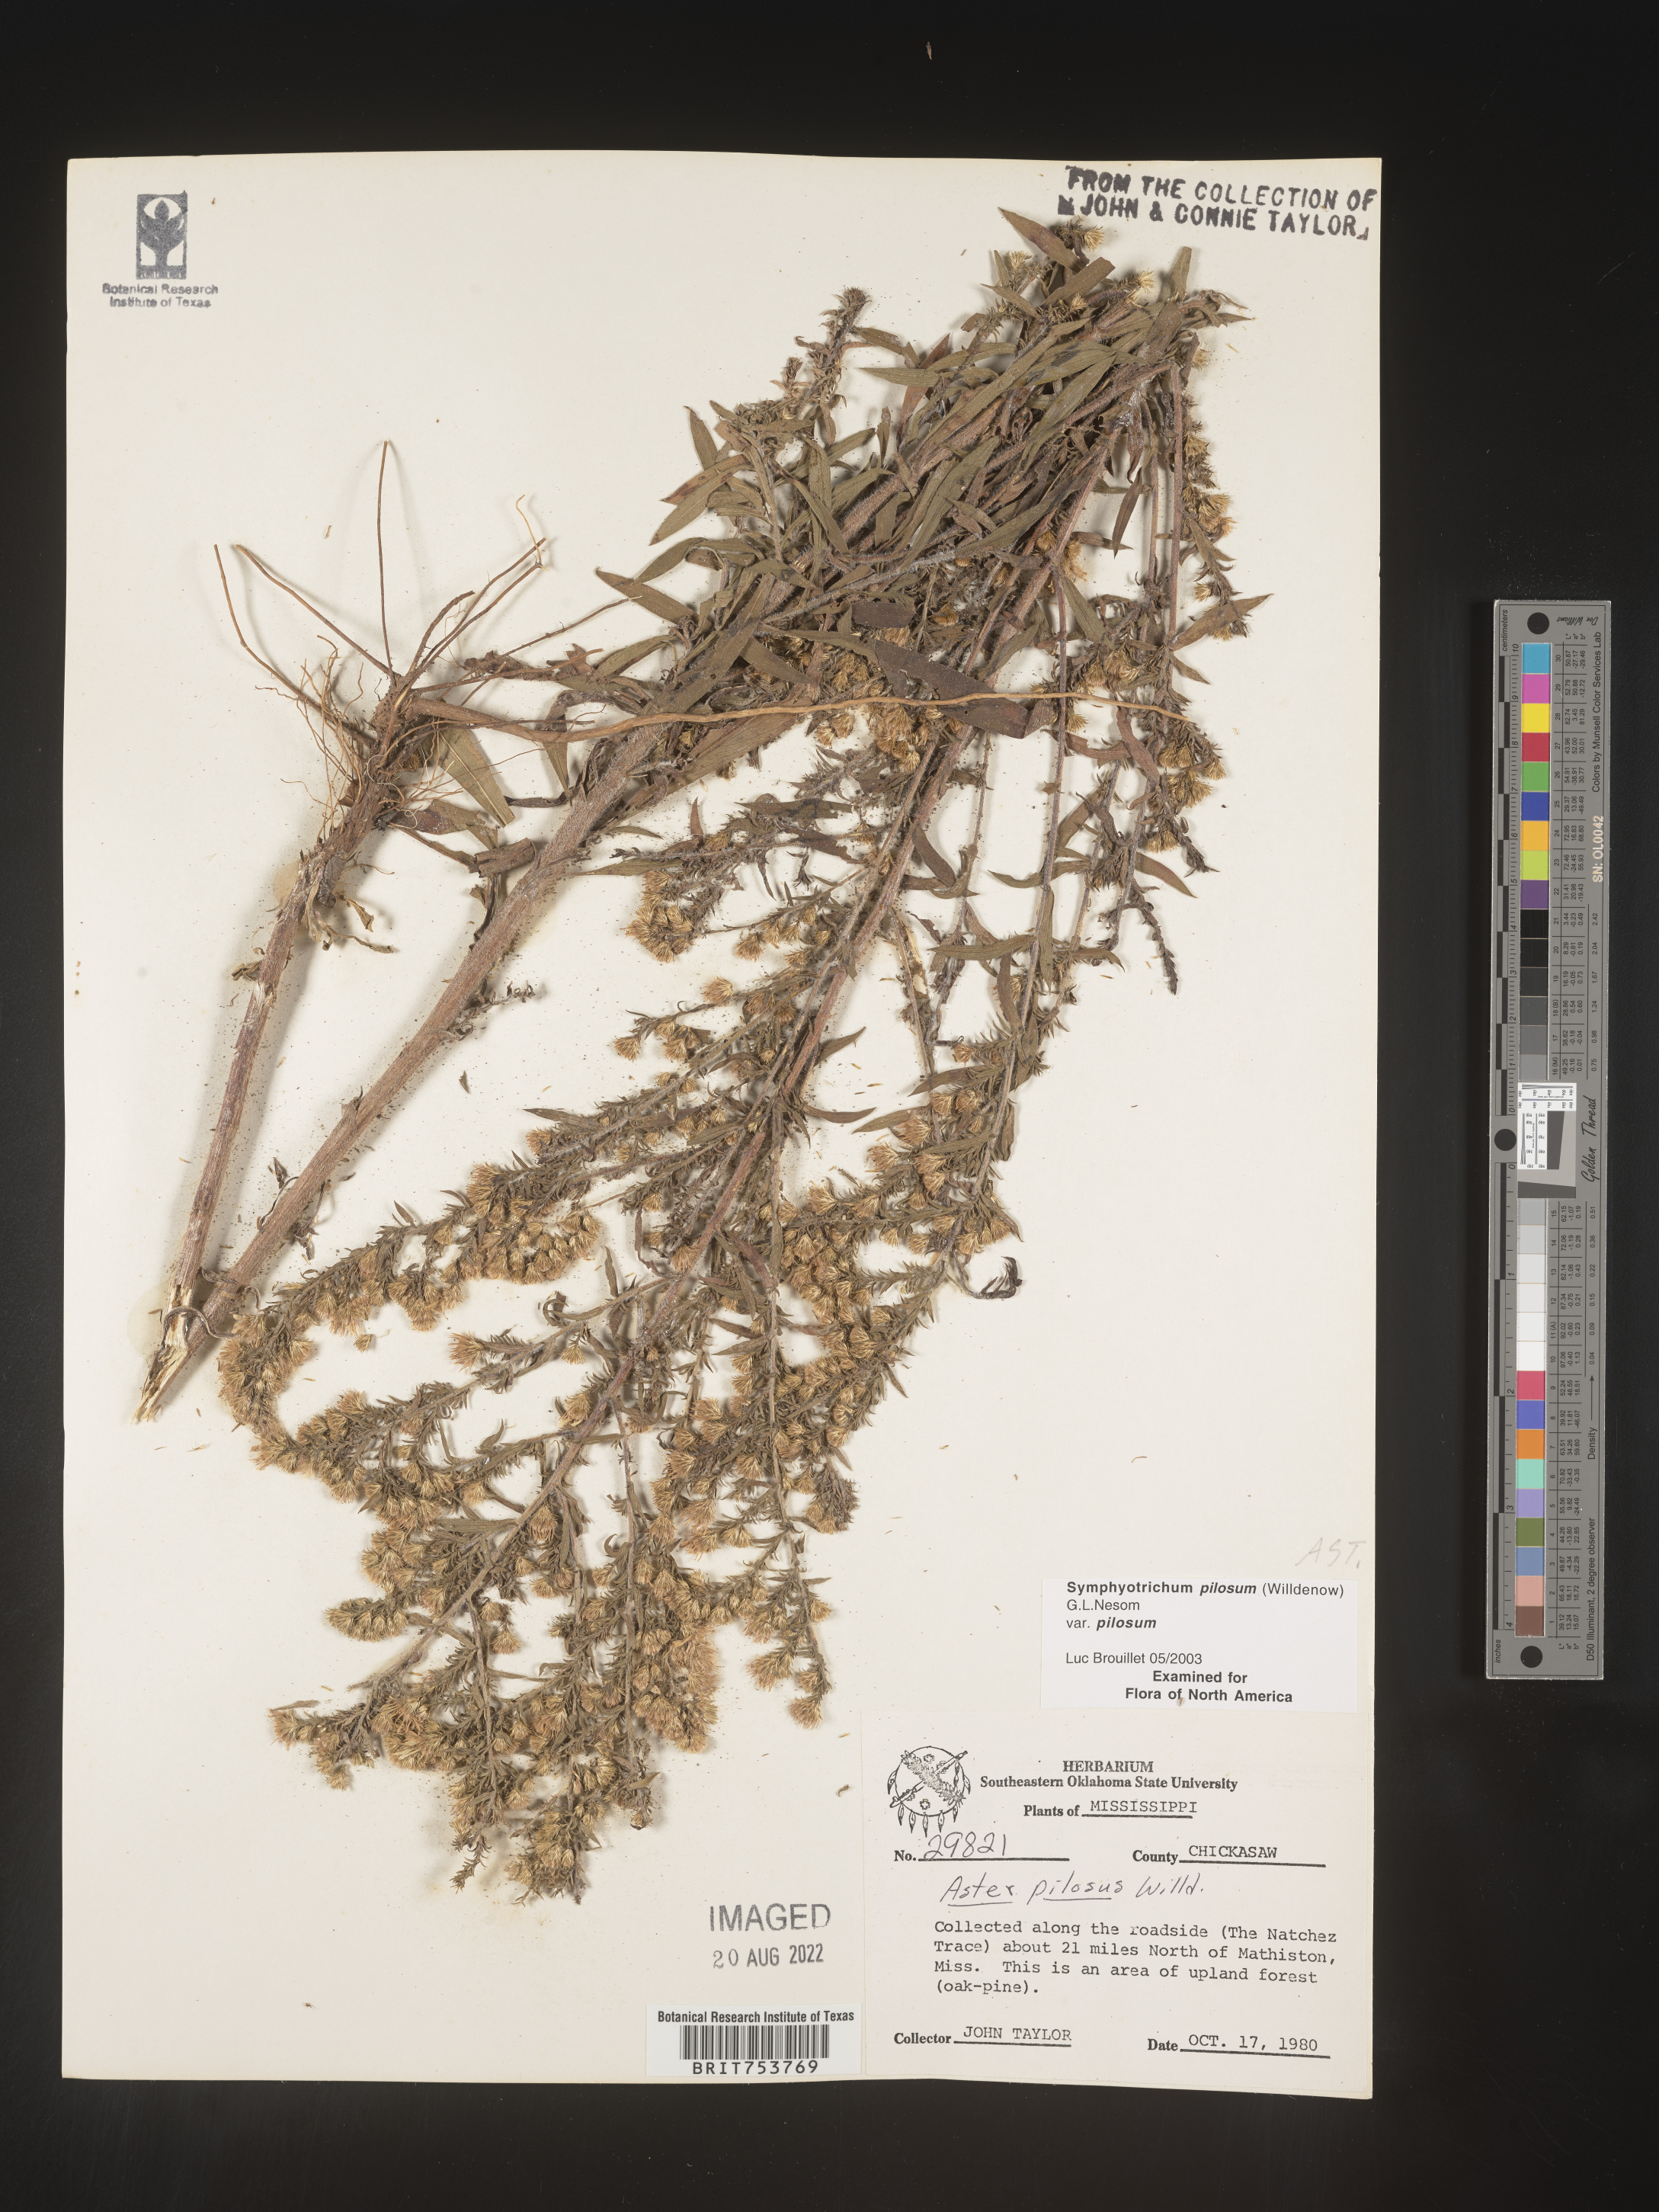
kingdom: Plantae
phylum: Tracheophyta
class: Magnoliopsida
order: Asterales
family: Asteraceae
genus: Symphyotrichum
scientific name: Symphyotrichum pilosum
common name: Awl aster
